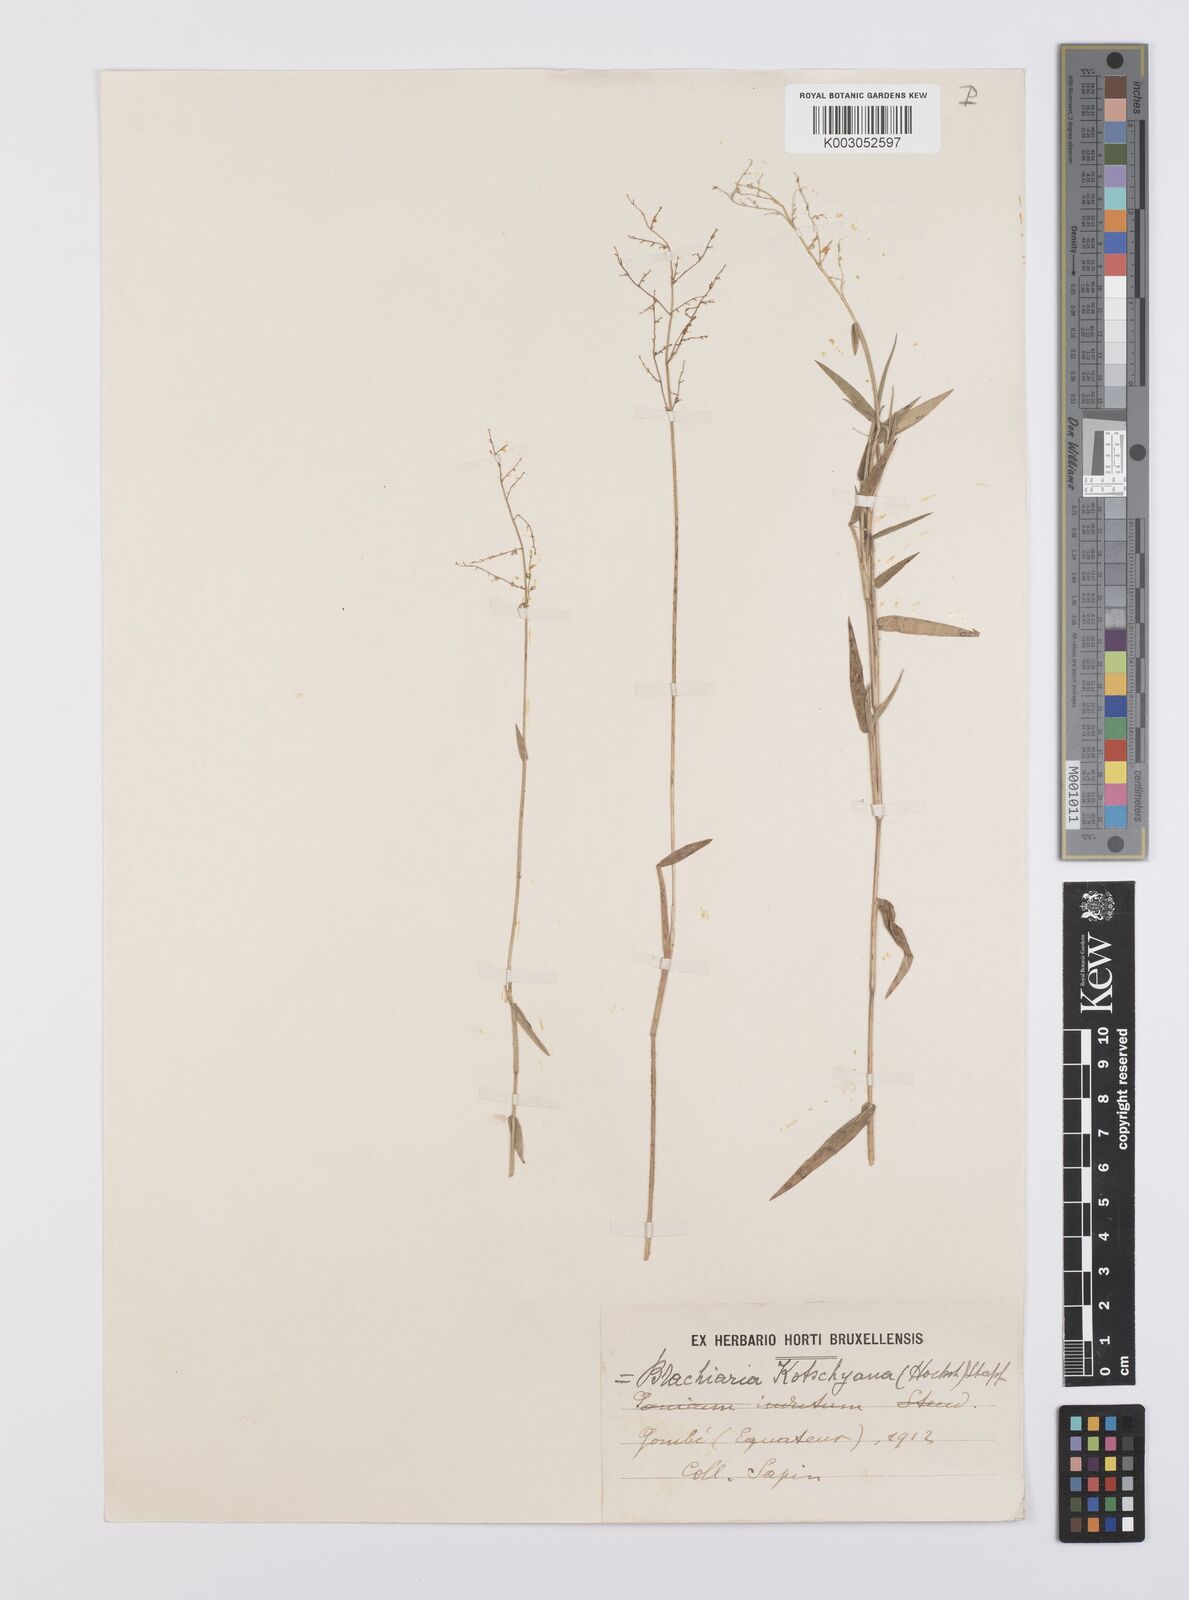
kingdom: Plantae
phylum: Tracheophyta
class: Liliopsida
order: Poales
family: Poaceae
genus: Urochloa
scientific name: Urochloa comata
